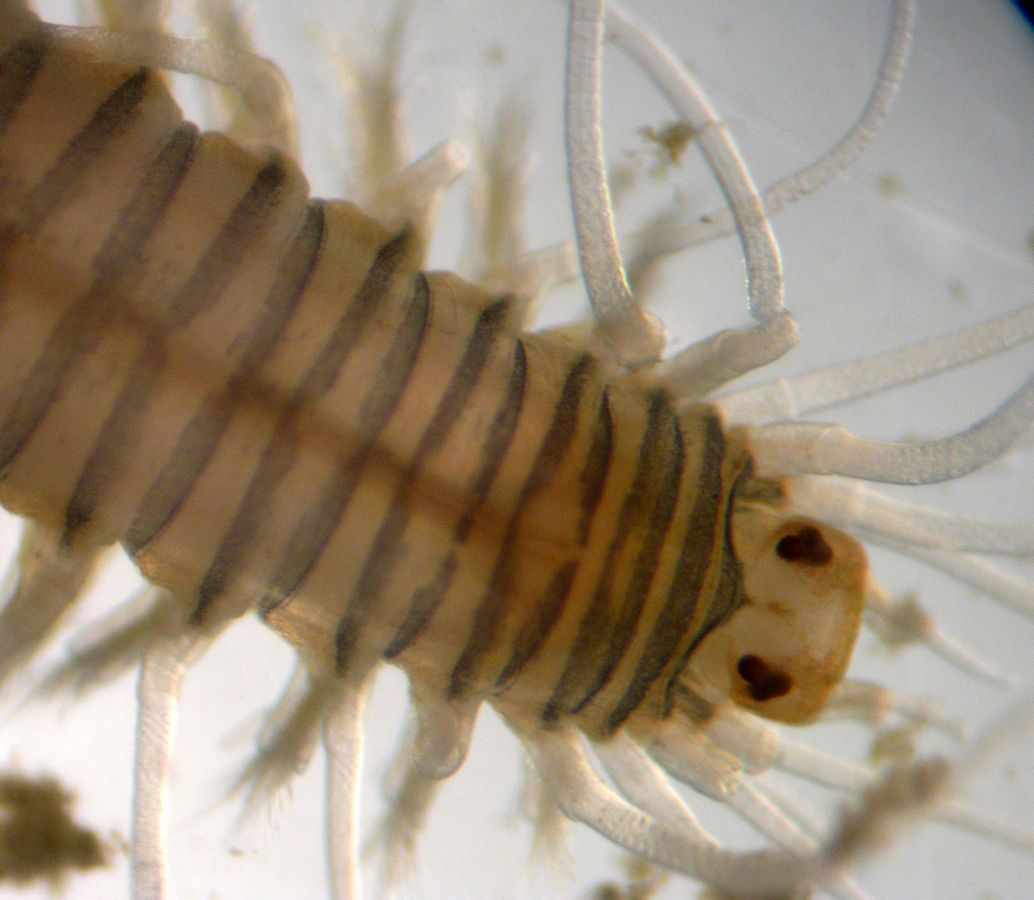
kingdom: Animalia
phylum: Annelida
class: Polychaeta
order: Phyllodocida
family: Hesionidae
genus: Nereimyra
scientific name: Nereimyra punctata
